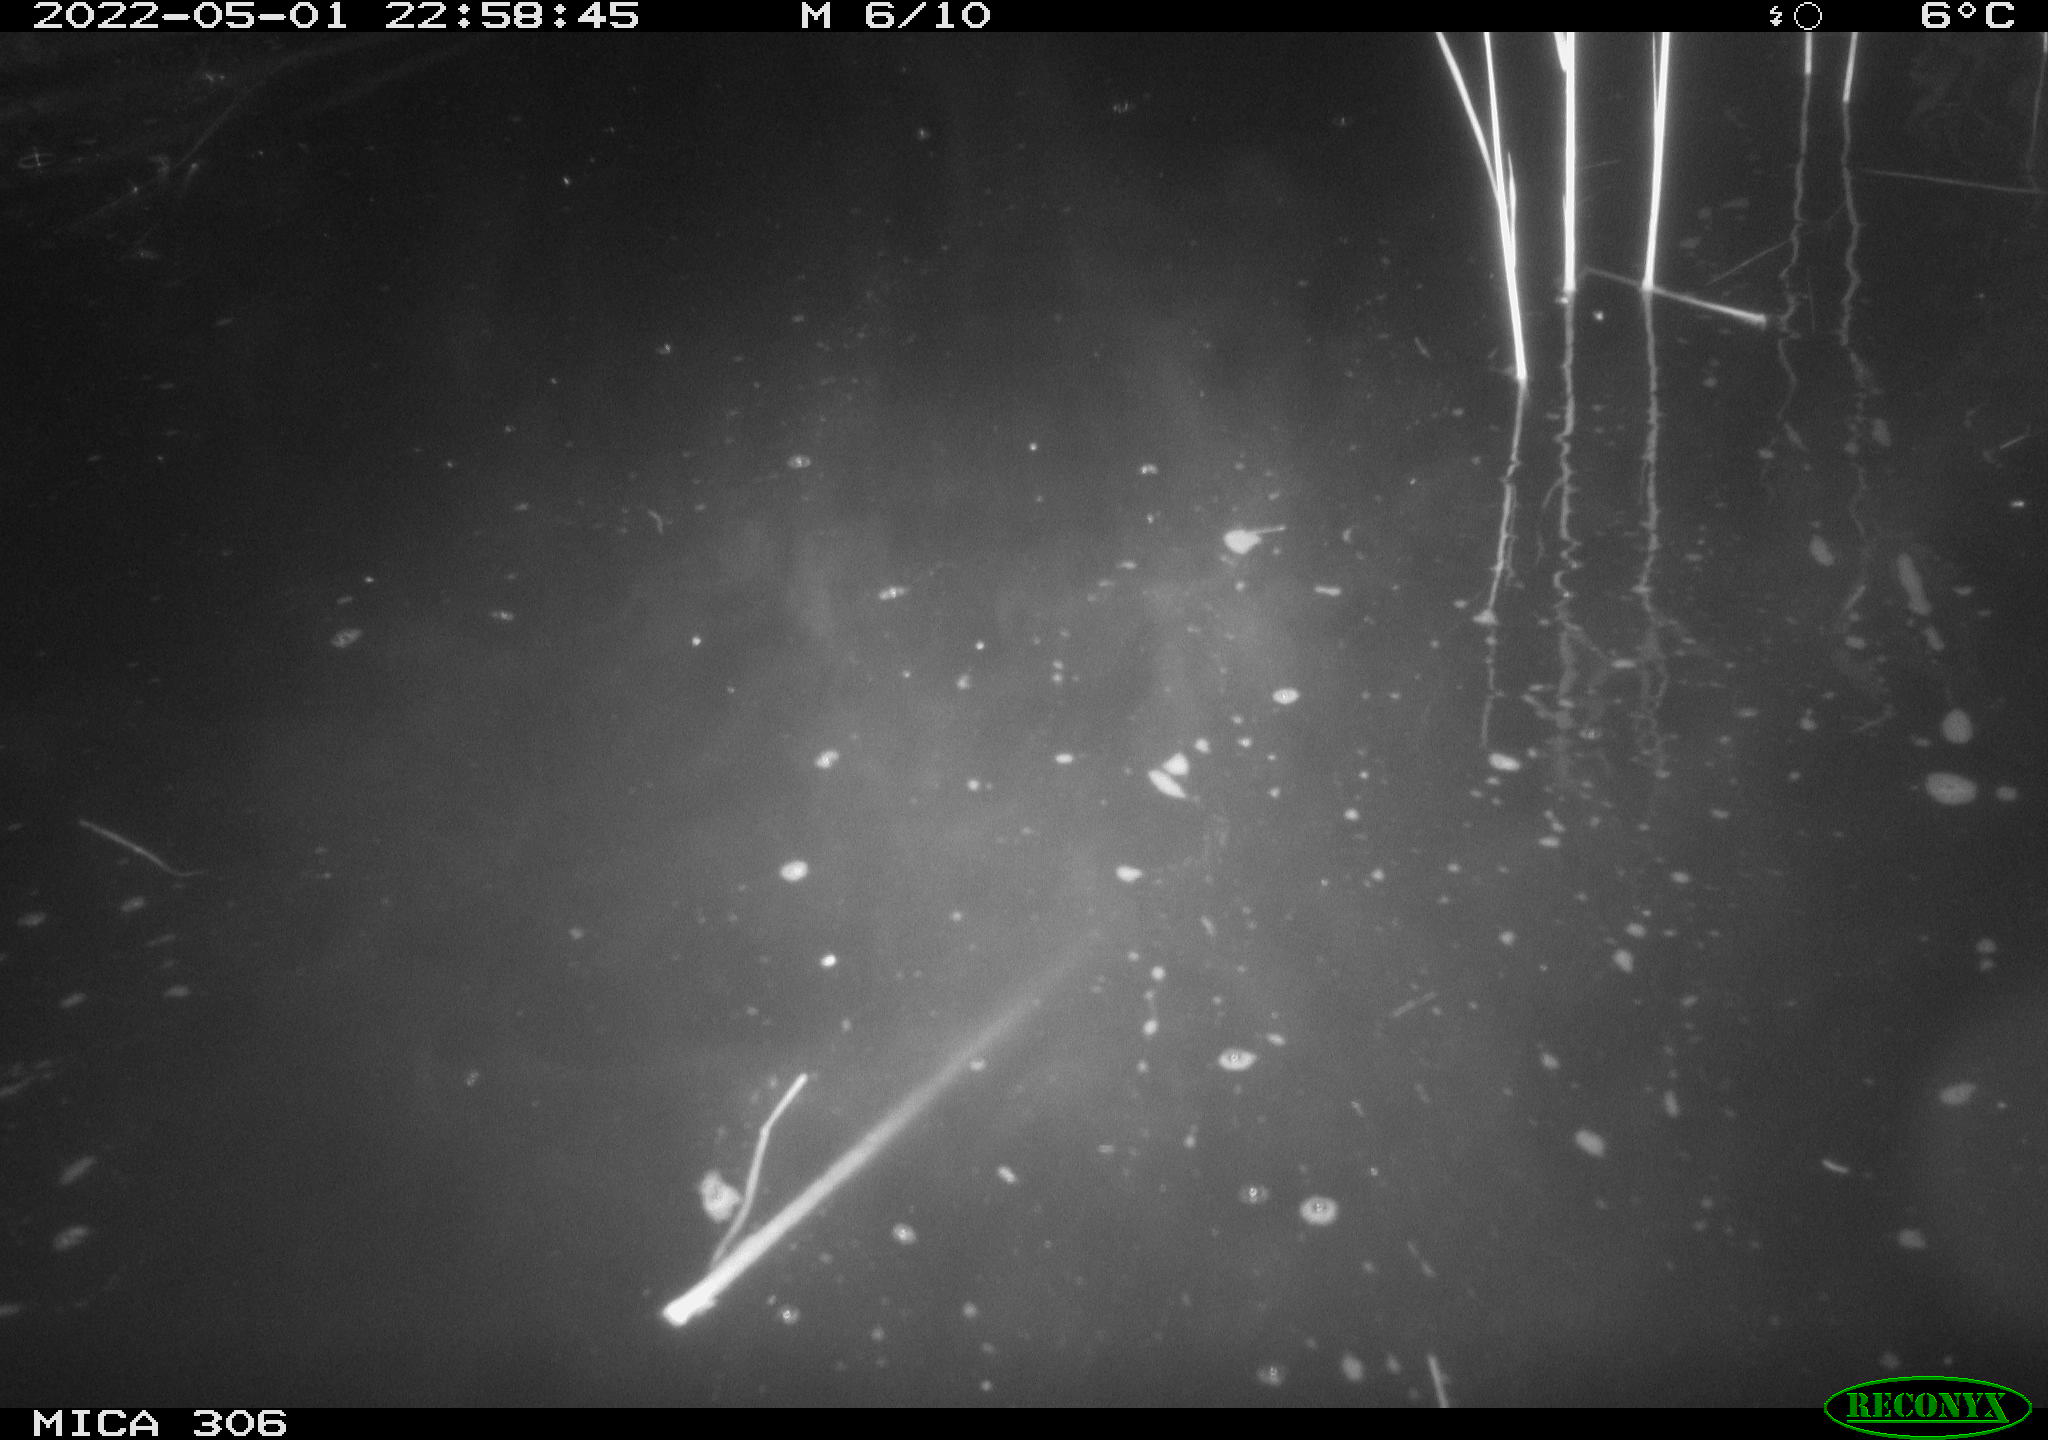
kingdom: Animalia
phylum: Chordata
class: Mammalia
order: Rodentia
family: Cricetidae
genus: Ondatra
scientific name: Ondatra zibethicus
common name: Muskrat
